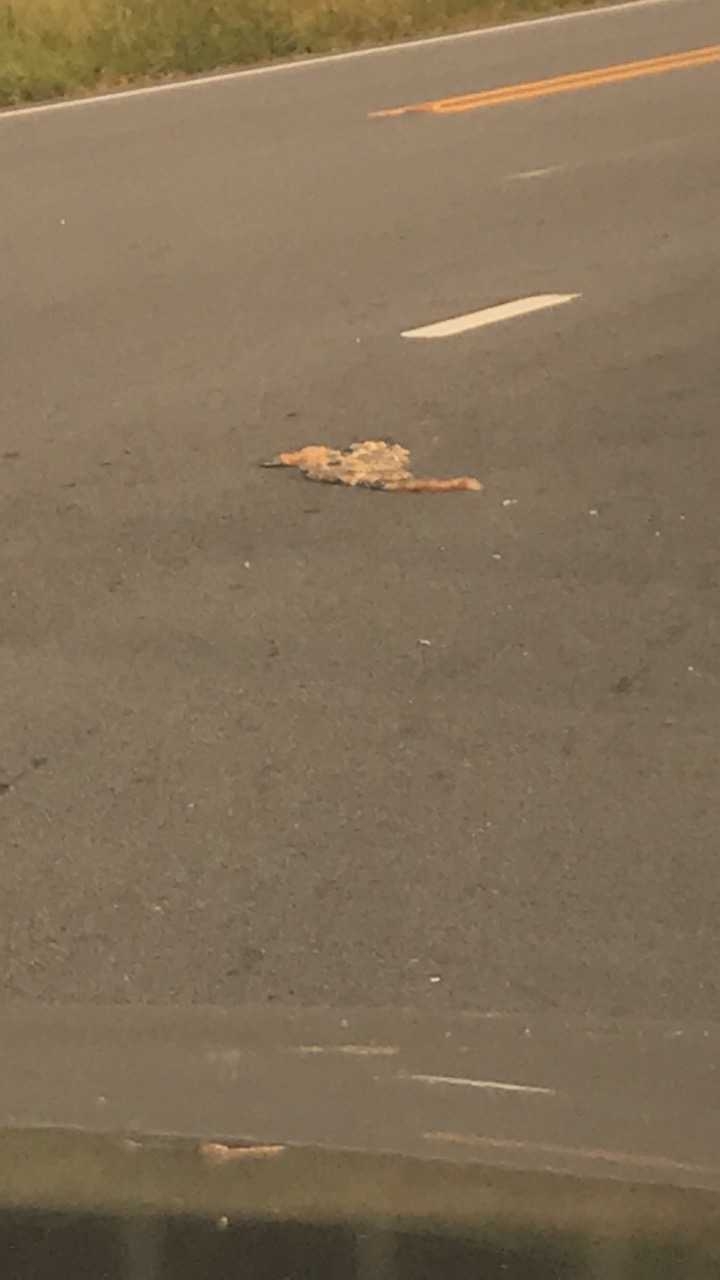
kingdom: Animalia
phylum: Chordata
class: Mammalia
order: Carnivora
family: Felidae
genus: Felis
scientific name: Felis catus
